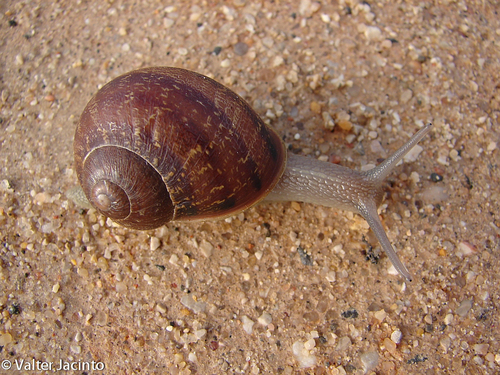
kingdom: Animalia
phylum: Mollusca
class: Gastropoda
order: Stylommatophora
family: Helicidae
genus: Cornu
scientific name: Cornu aspersum
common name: Brown garden snail
